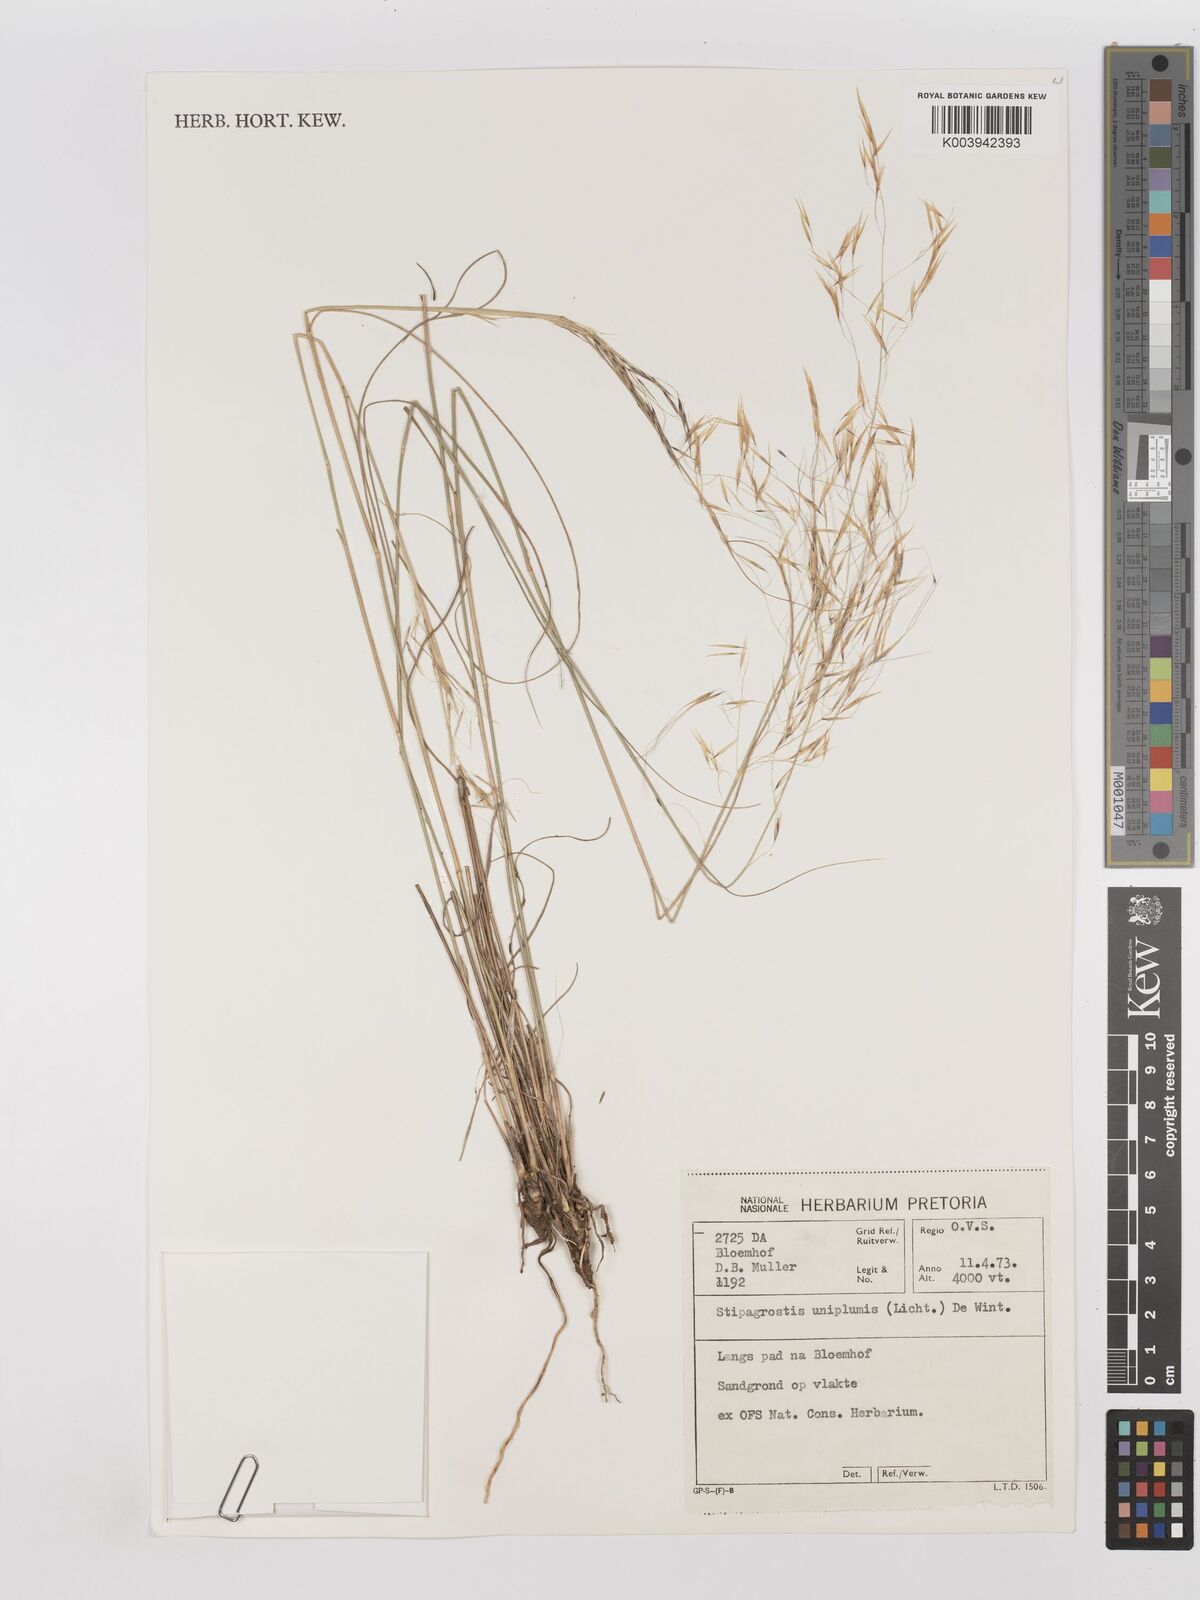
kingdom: Plantae
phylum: Tracheophyta
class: Liliopsida
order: Poales
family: Poaceae
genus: Stipagrostis
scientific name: Stipagrostis uniplumis
